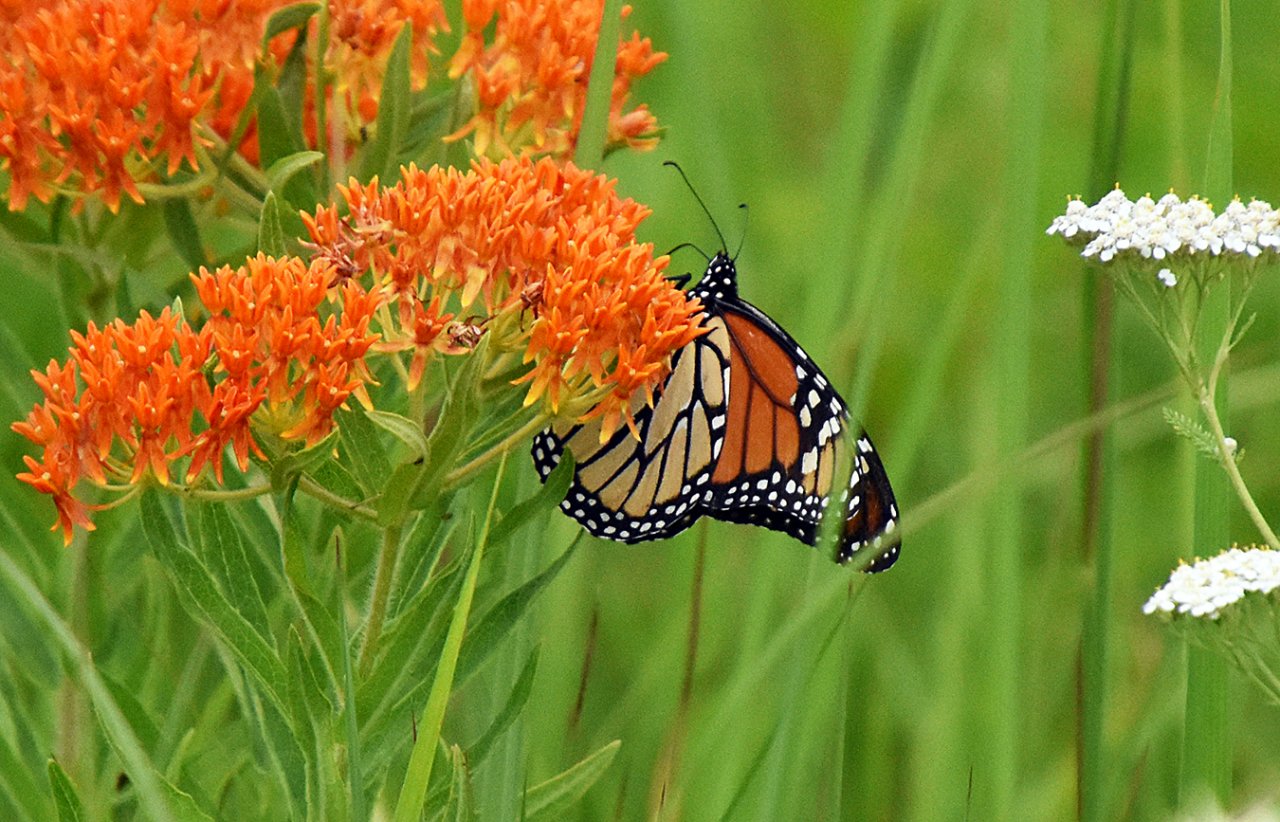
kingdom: Animalia
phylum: Arthropoda
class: Insecta
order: Lepidoptera
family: Nymphalidae
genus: Danaus
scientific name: Danaus plexippus
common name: Monarch
